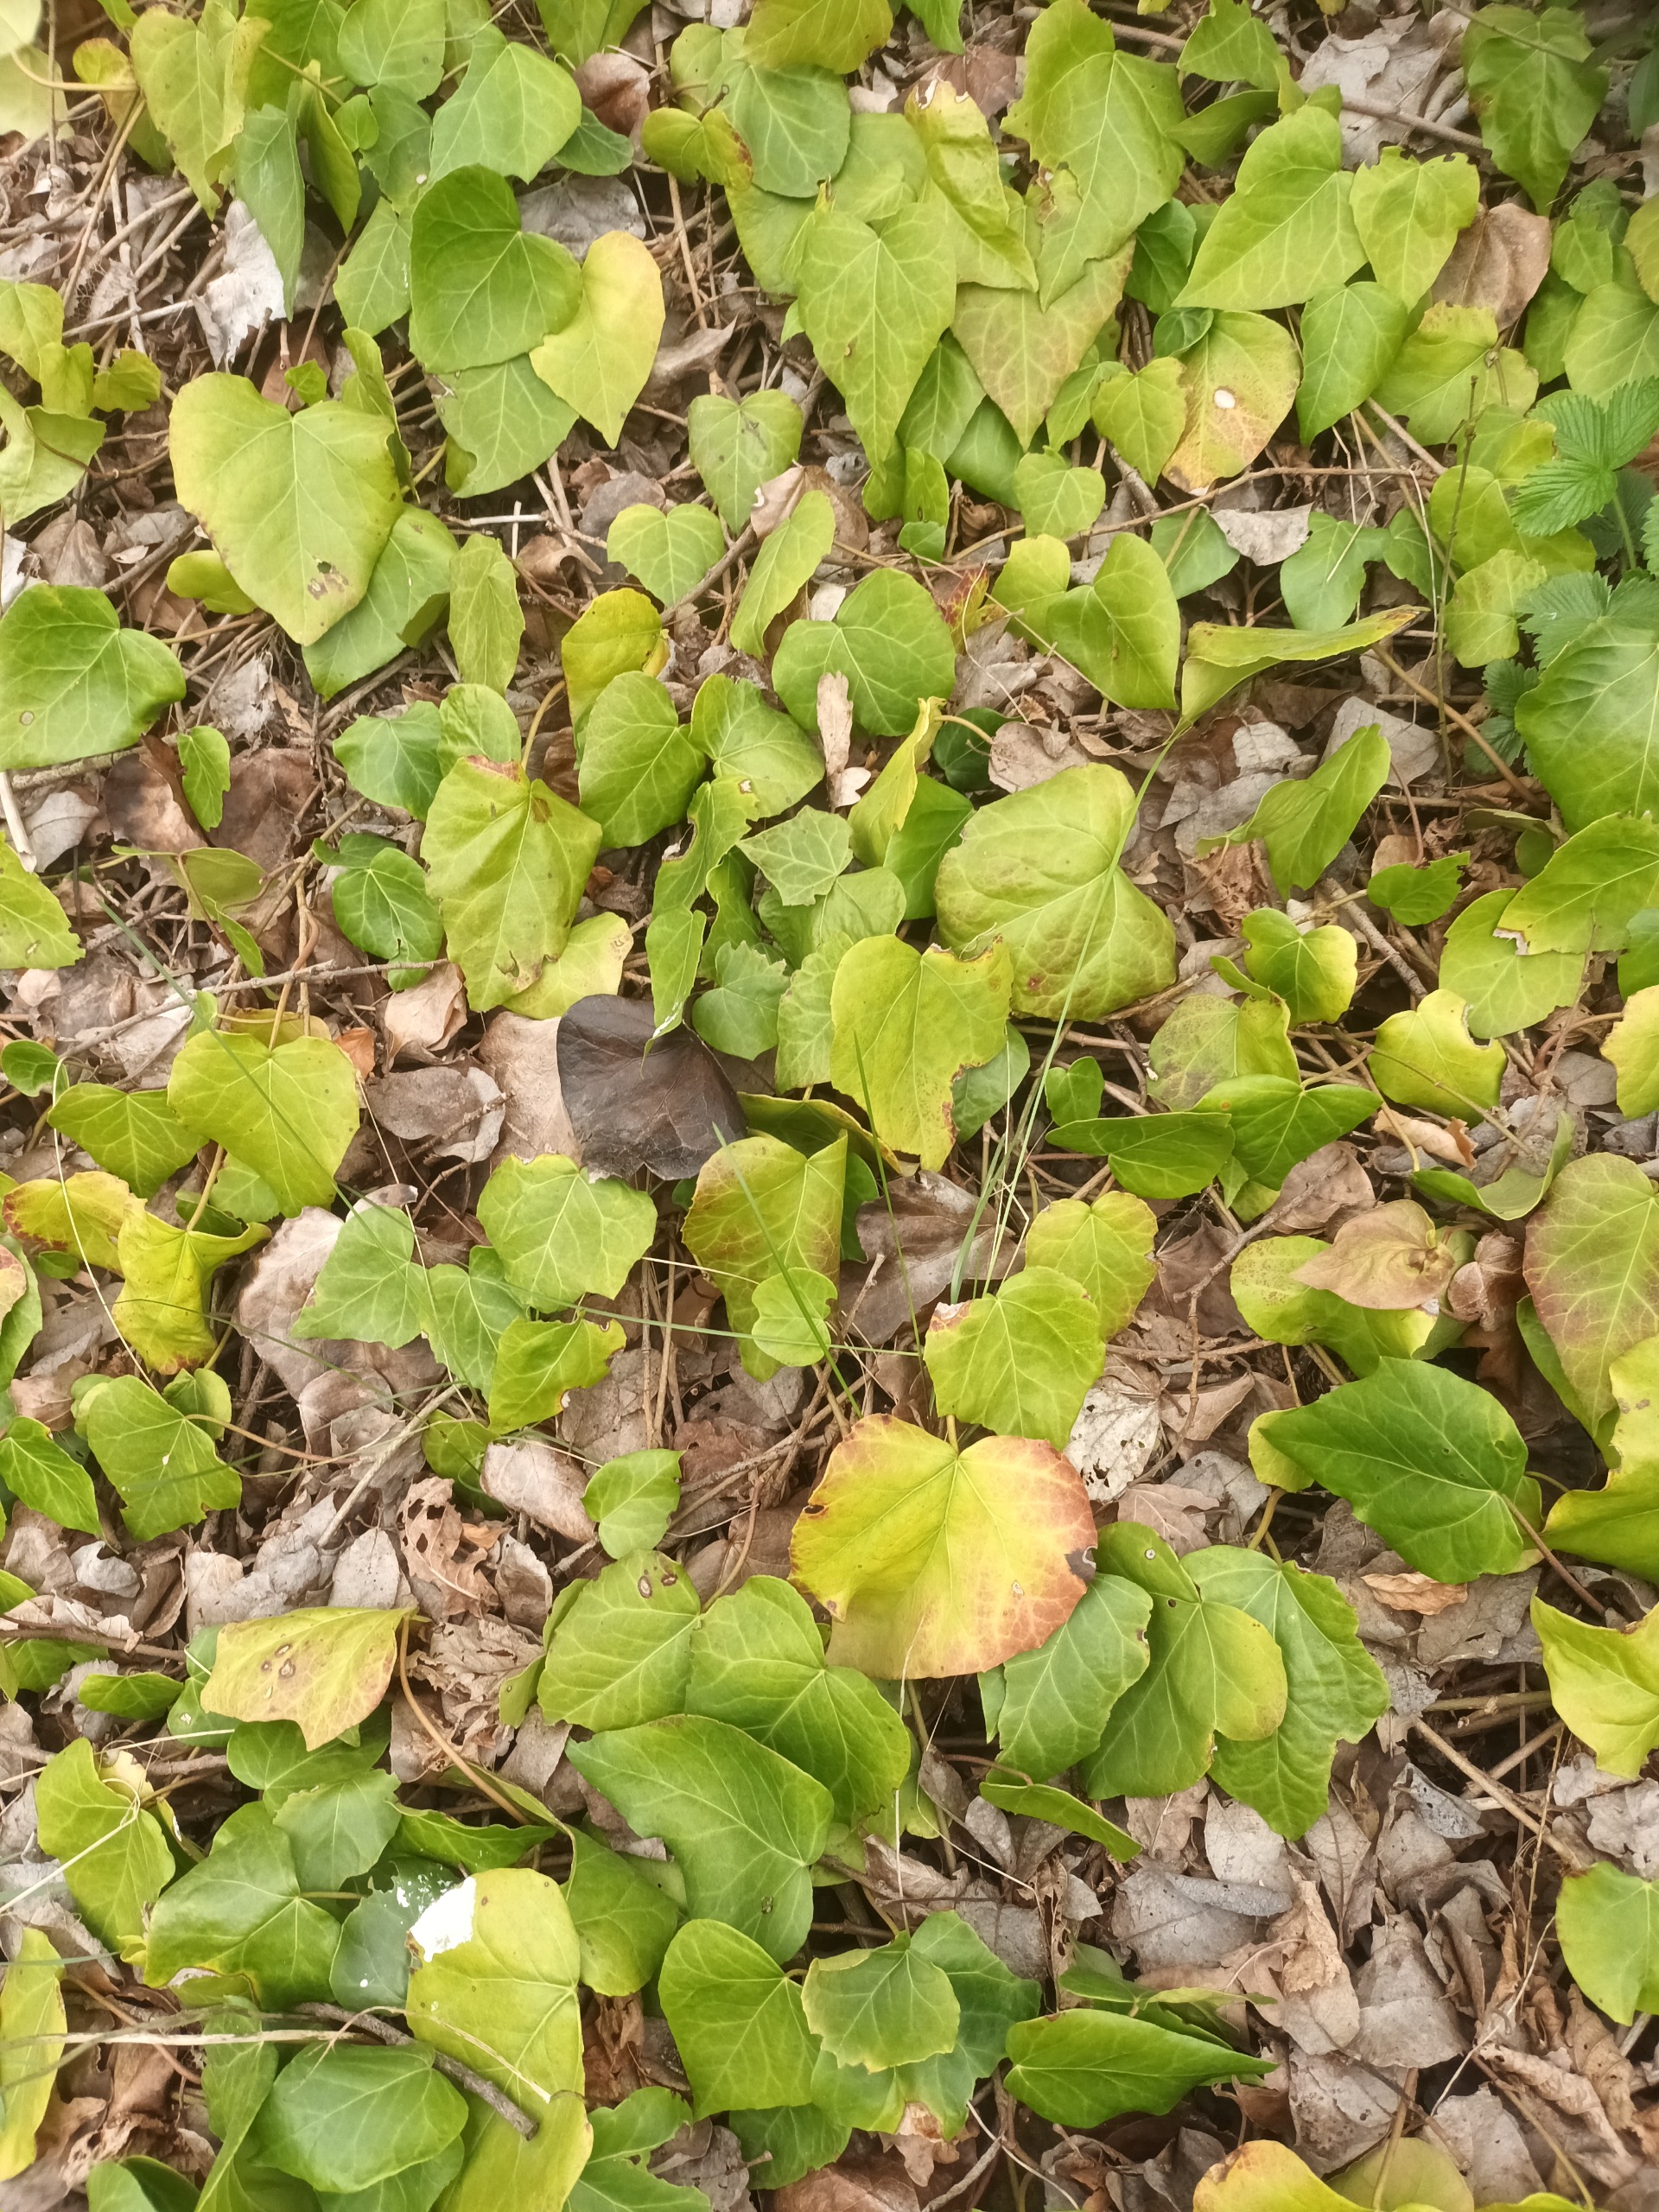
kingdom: Plantae
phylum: Tracheophyta
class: Magnoliopsida
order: Apiales
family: Araliaceae
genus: Hedera
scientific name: Hedera colchica
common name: Kæmpe-vedbend
